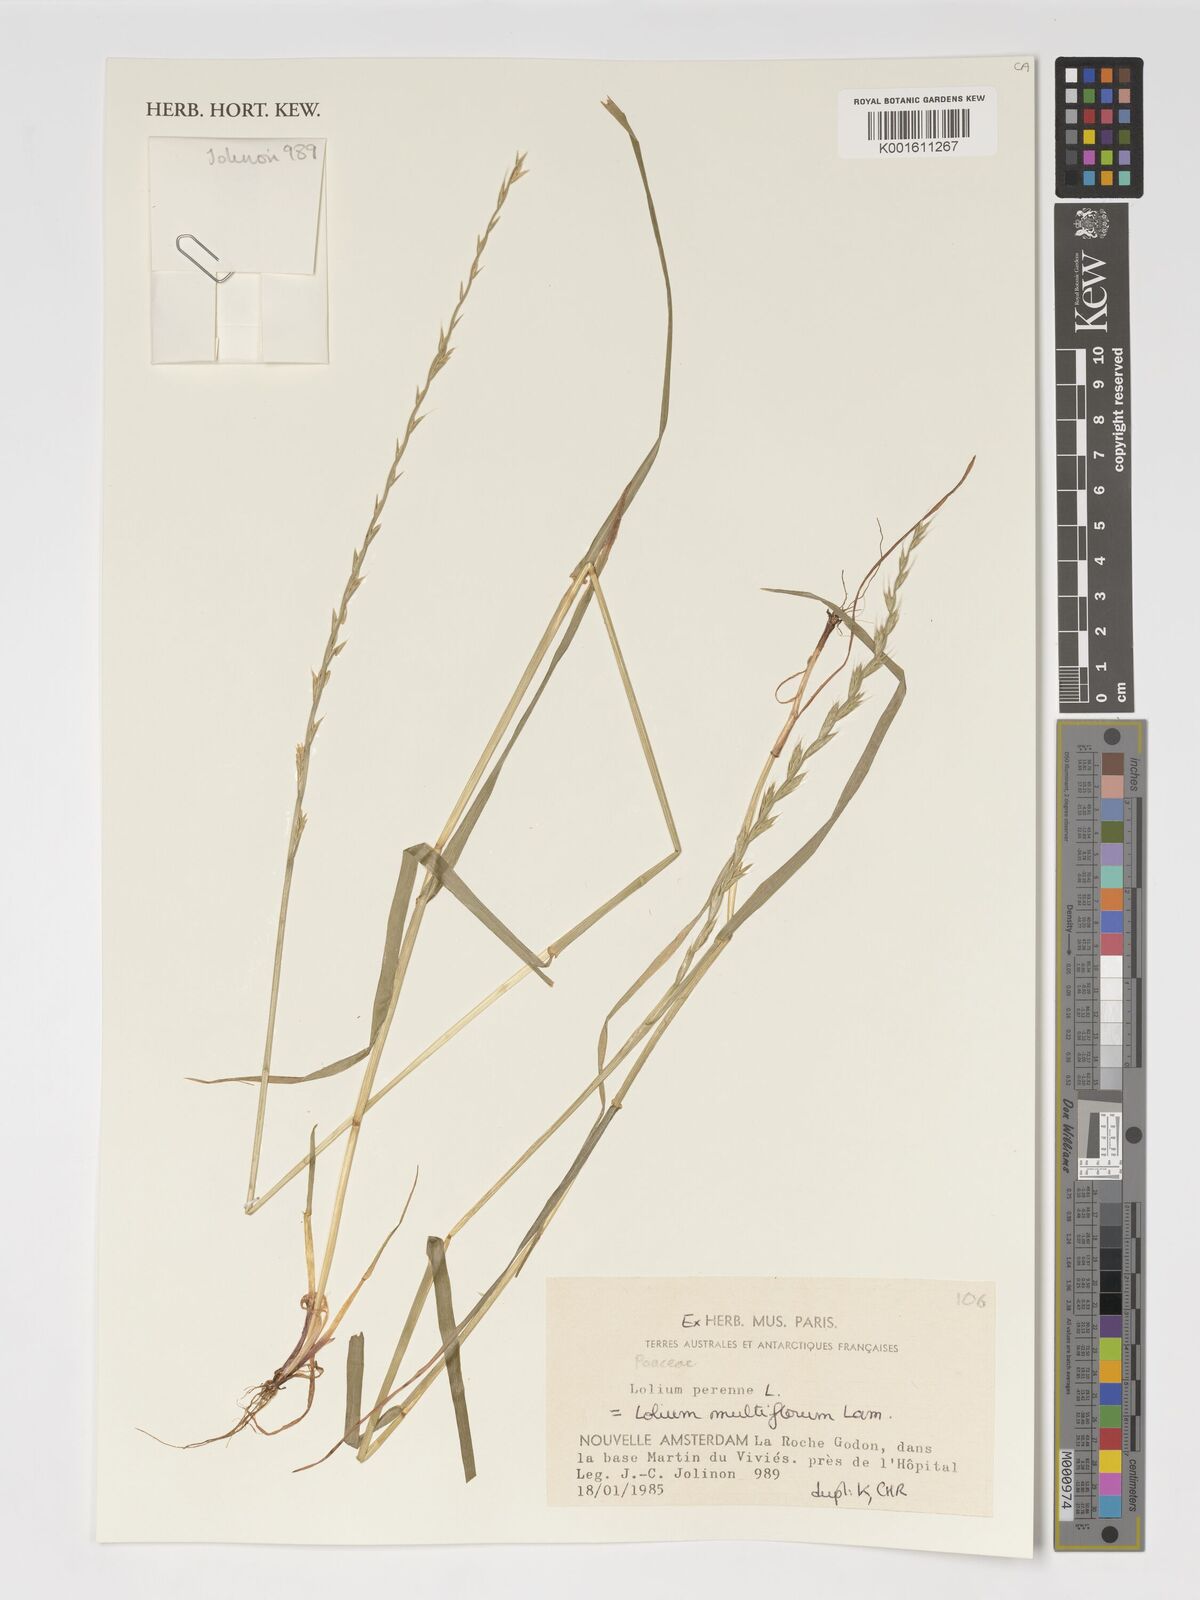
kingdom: Plantae
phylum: Tracheophyta
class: Liliopsida
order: Poales
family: Poaceae
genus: Lolium
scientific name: Lolium multiflorum
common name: Annual ryegrass
